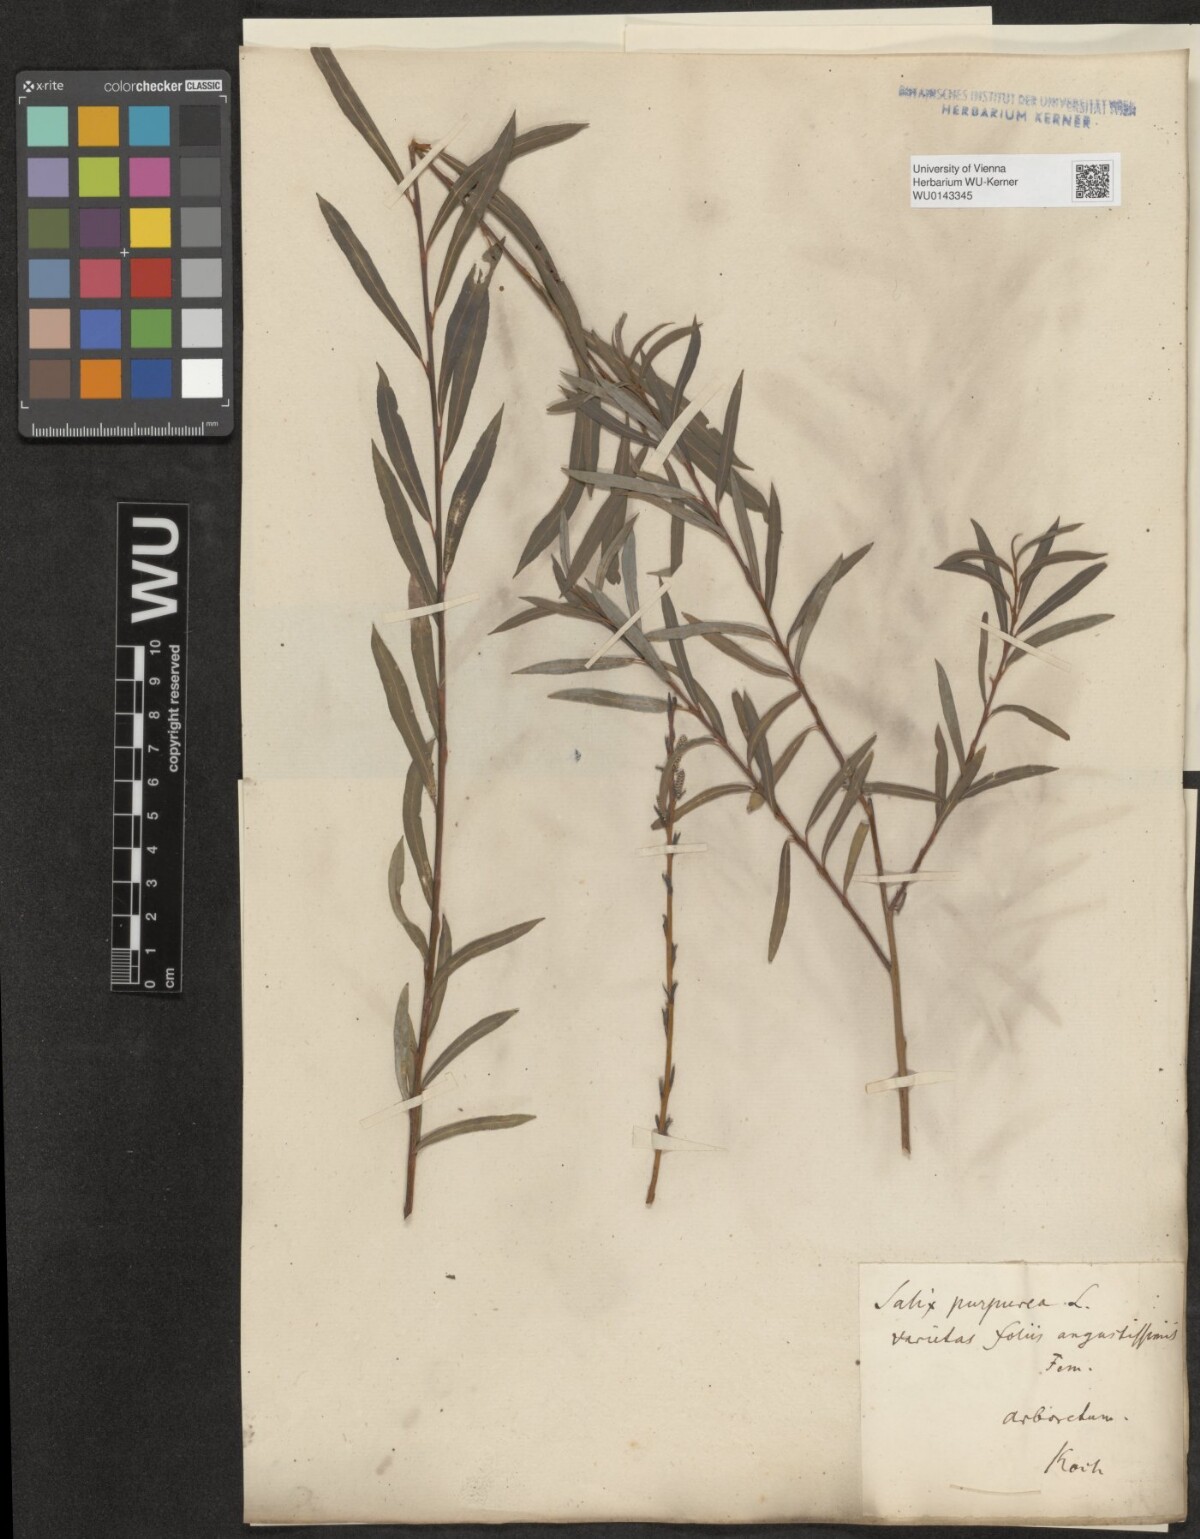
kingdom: Plantae
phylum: Tracheophyta
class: Magnoliopsida
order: Malpighiales
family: Salicaceae
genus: Salix
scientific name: Salix purpurea
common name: Purple willow
